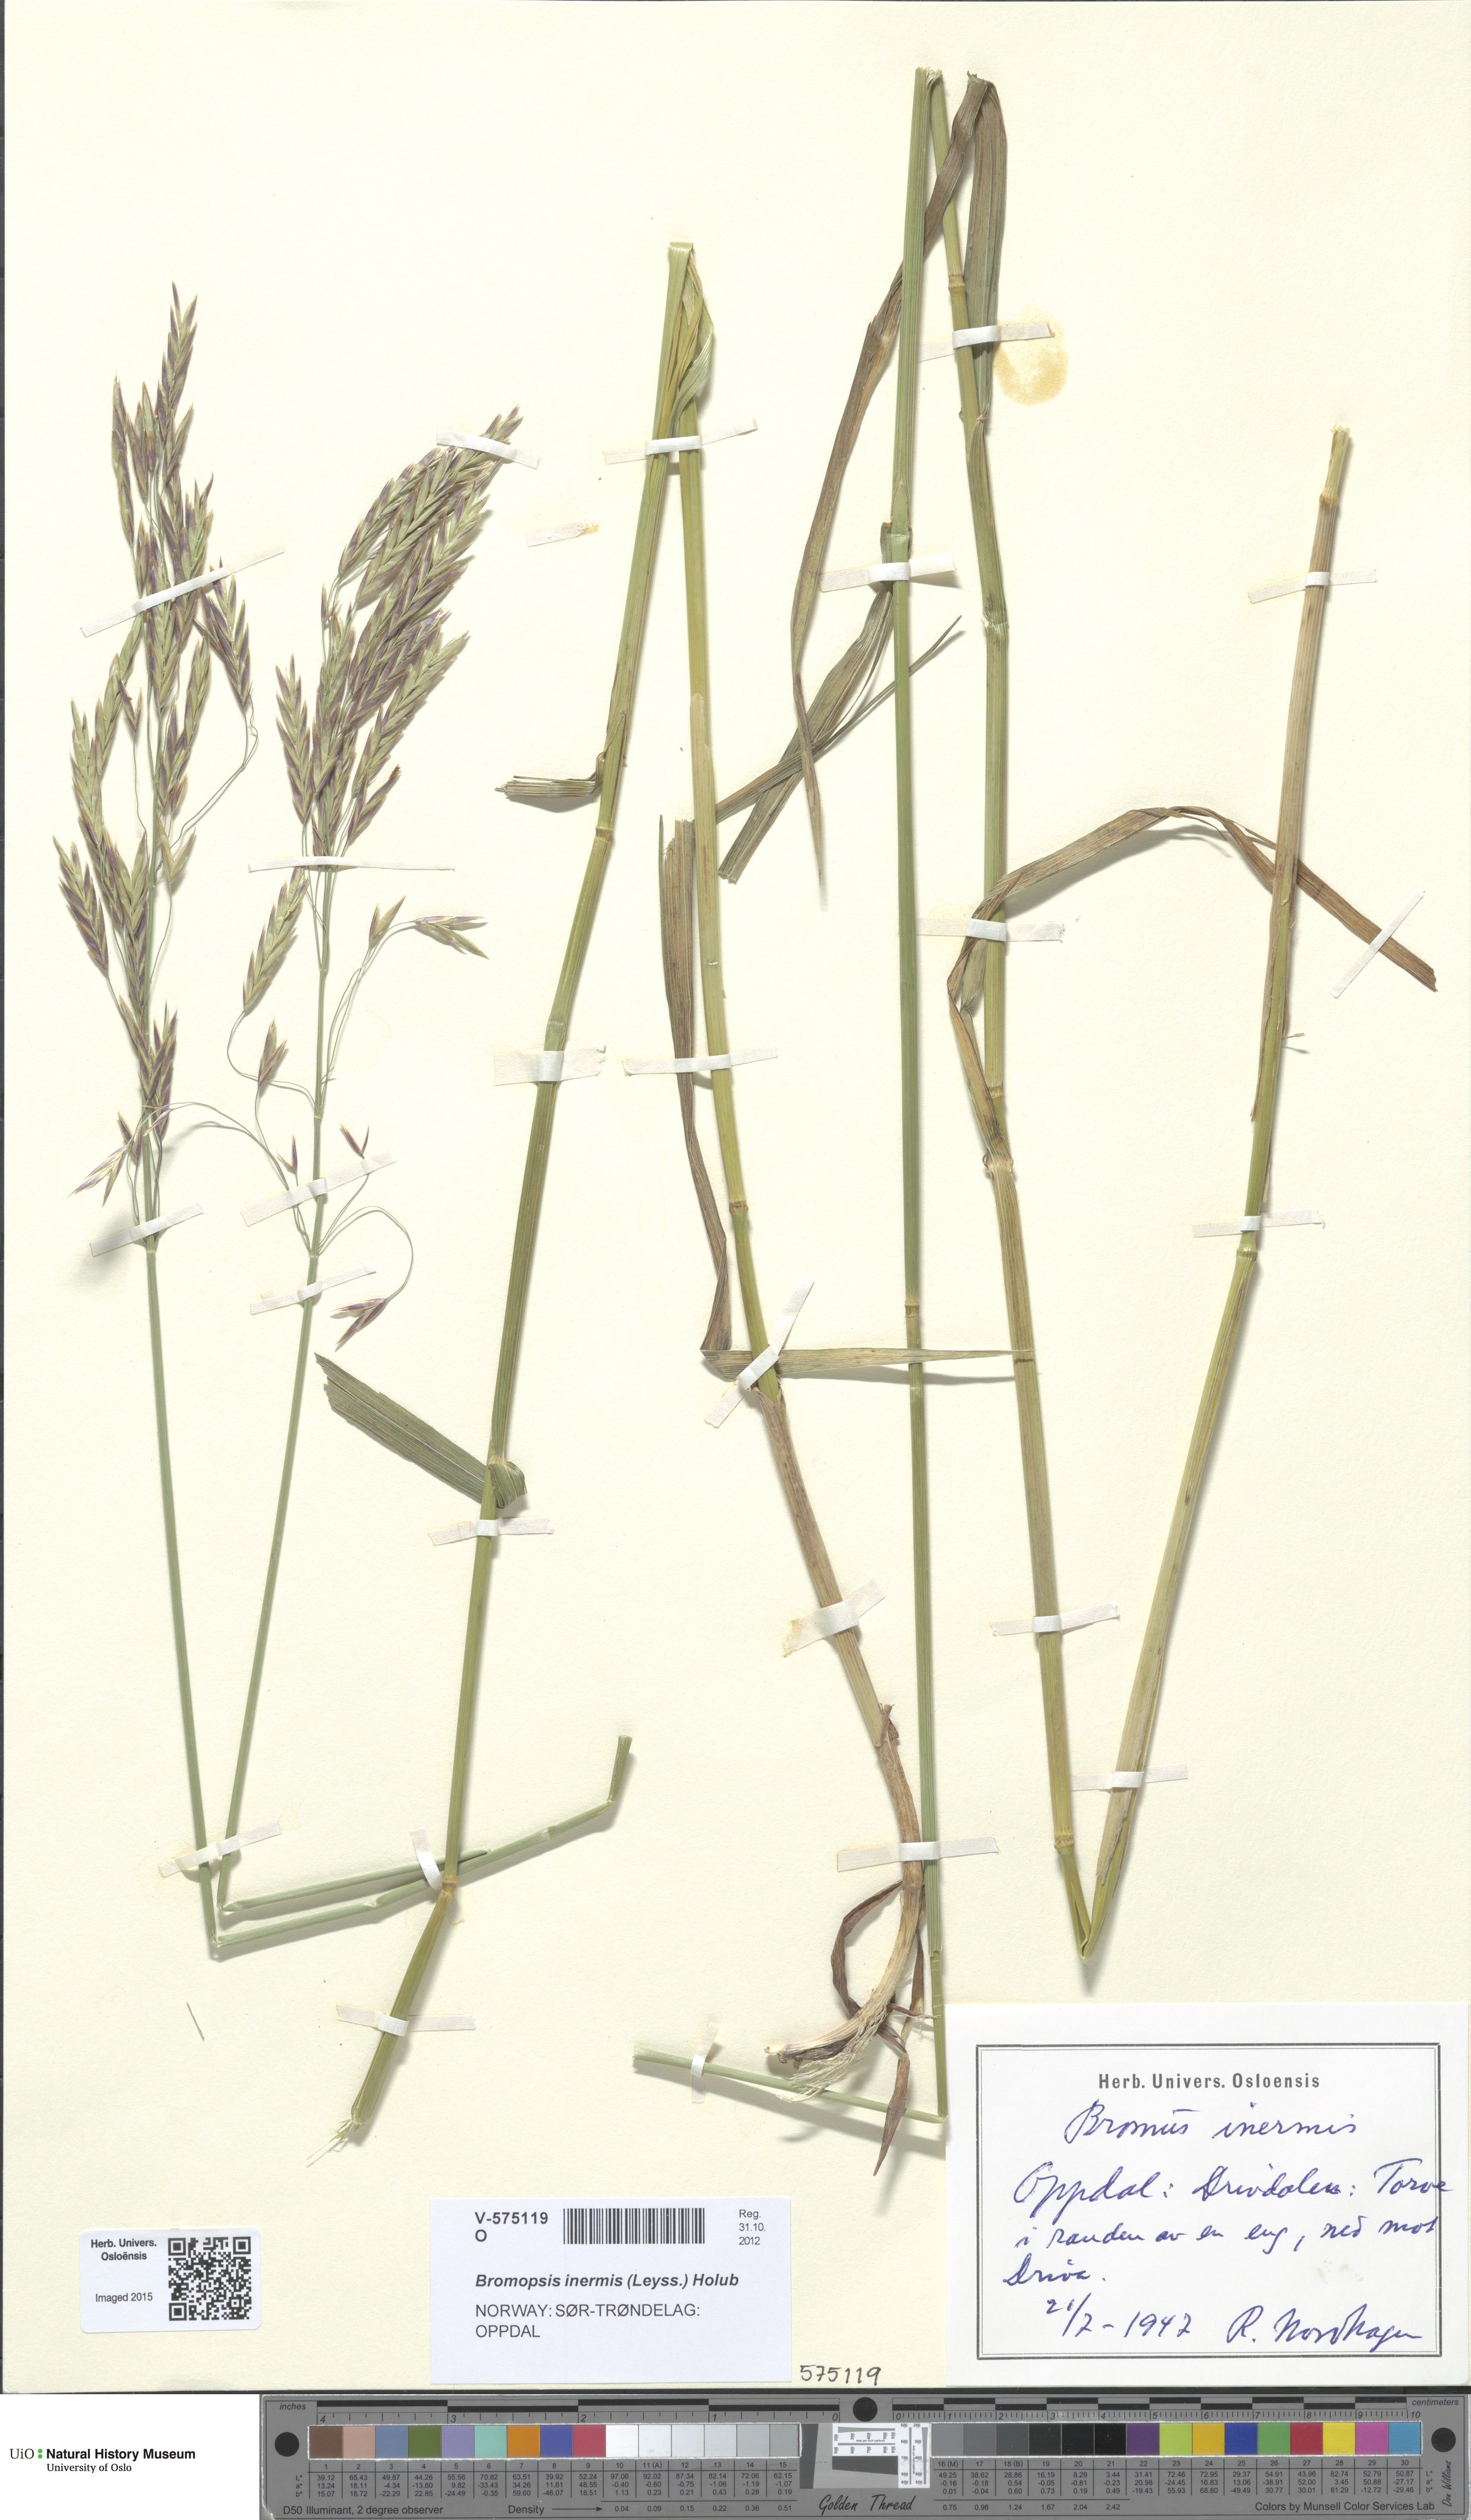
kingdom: Plantae
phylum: Tracheophyta
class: Liliopsida
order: Poales
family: Poaceae
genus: Bromus
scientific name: Bromus inermis
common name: Smooth brome
